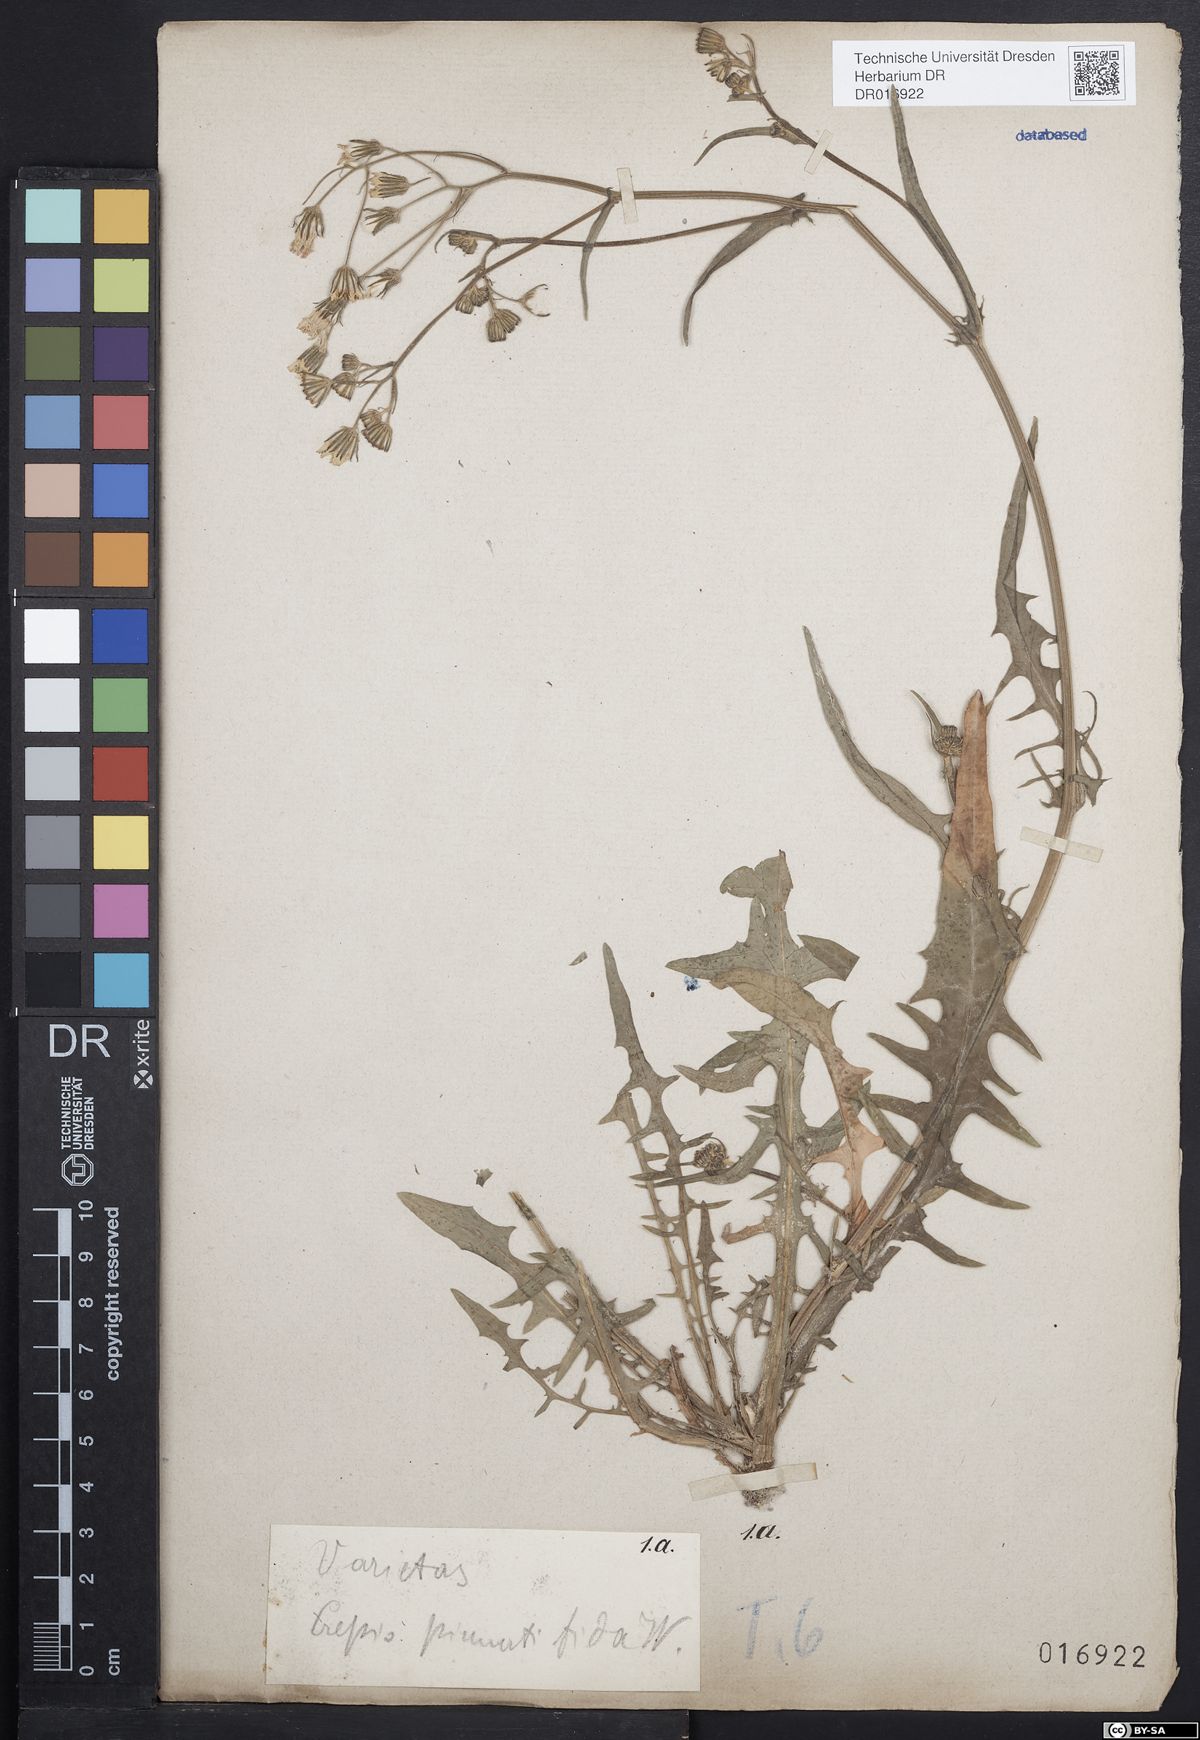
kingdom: Plantae
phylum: Tracheophyta
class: Magnoliopsida
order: Asterales
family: Asteraceae
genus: Crepis
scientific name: Crepis capillaris
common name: Smooth hawksbeard
